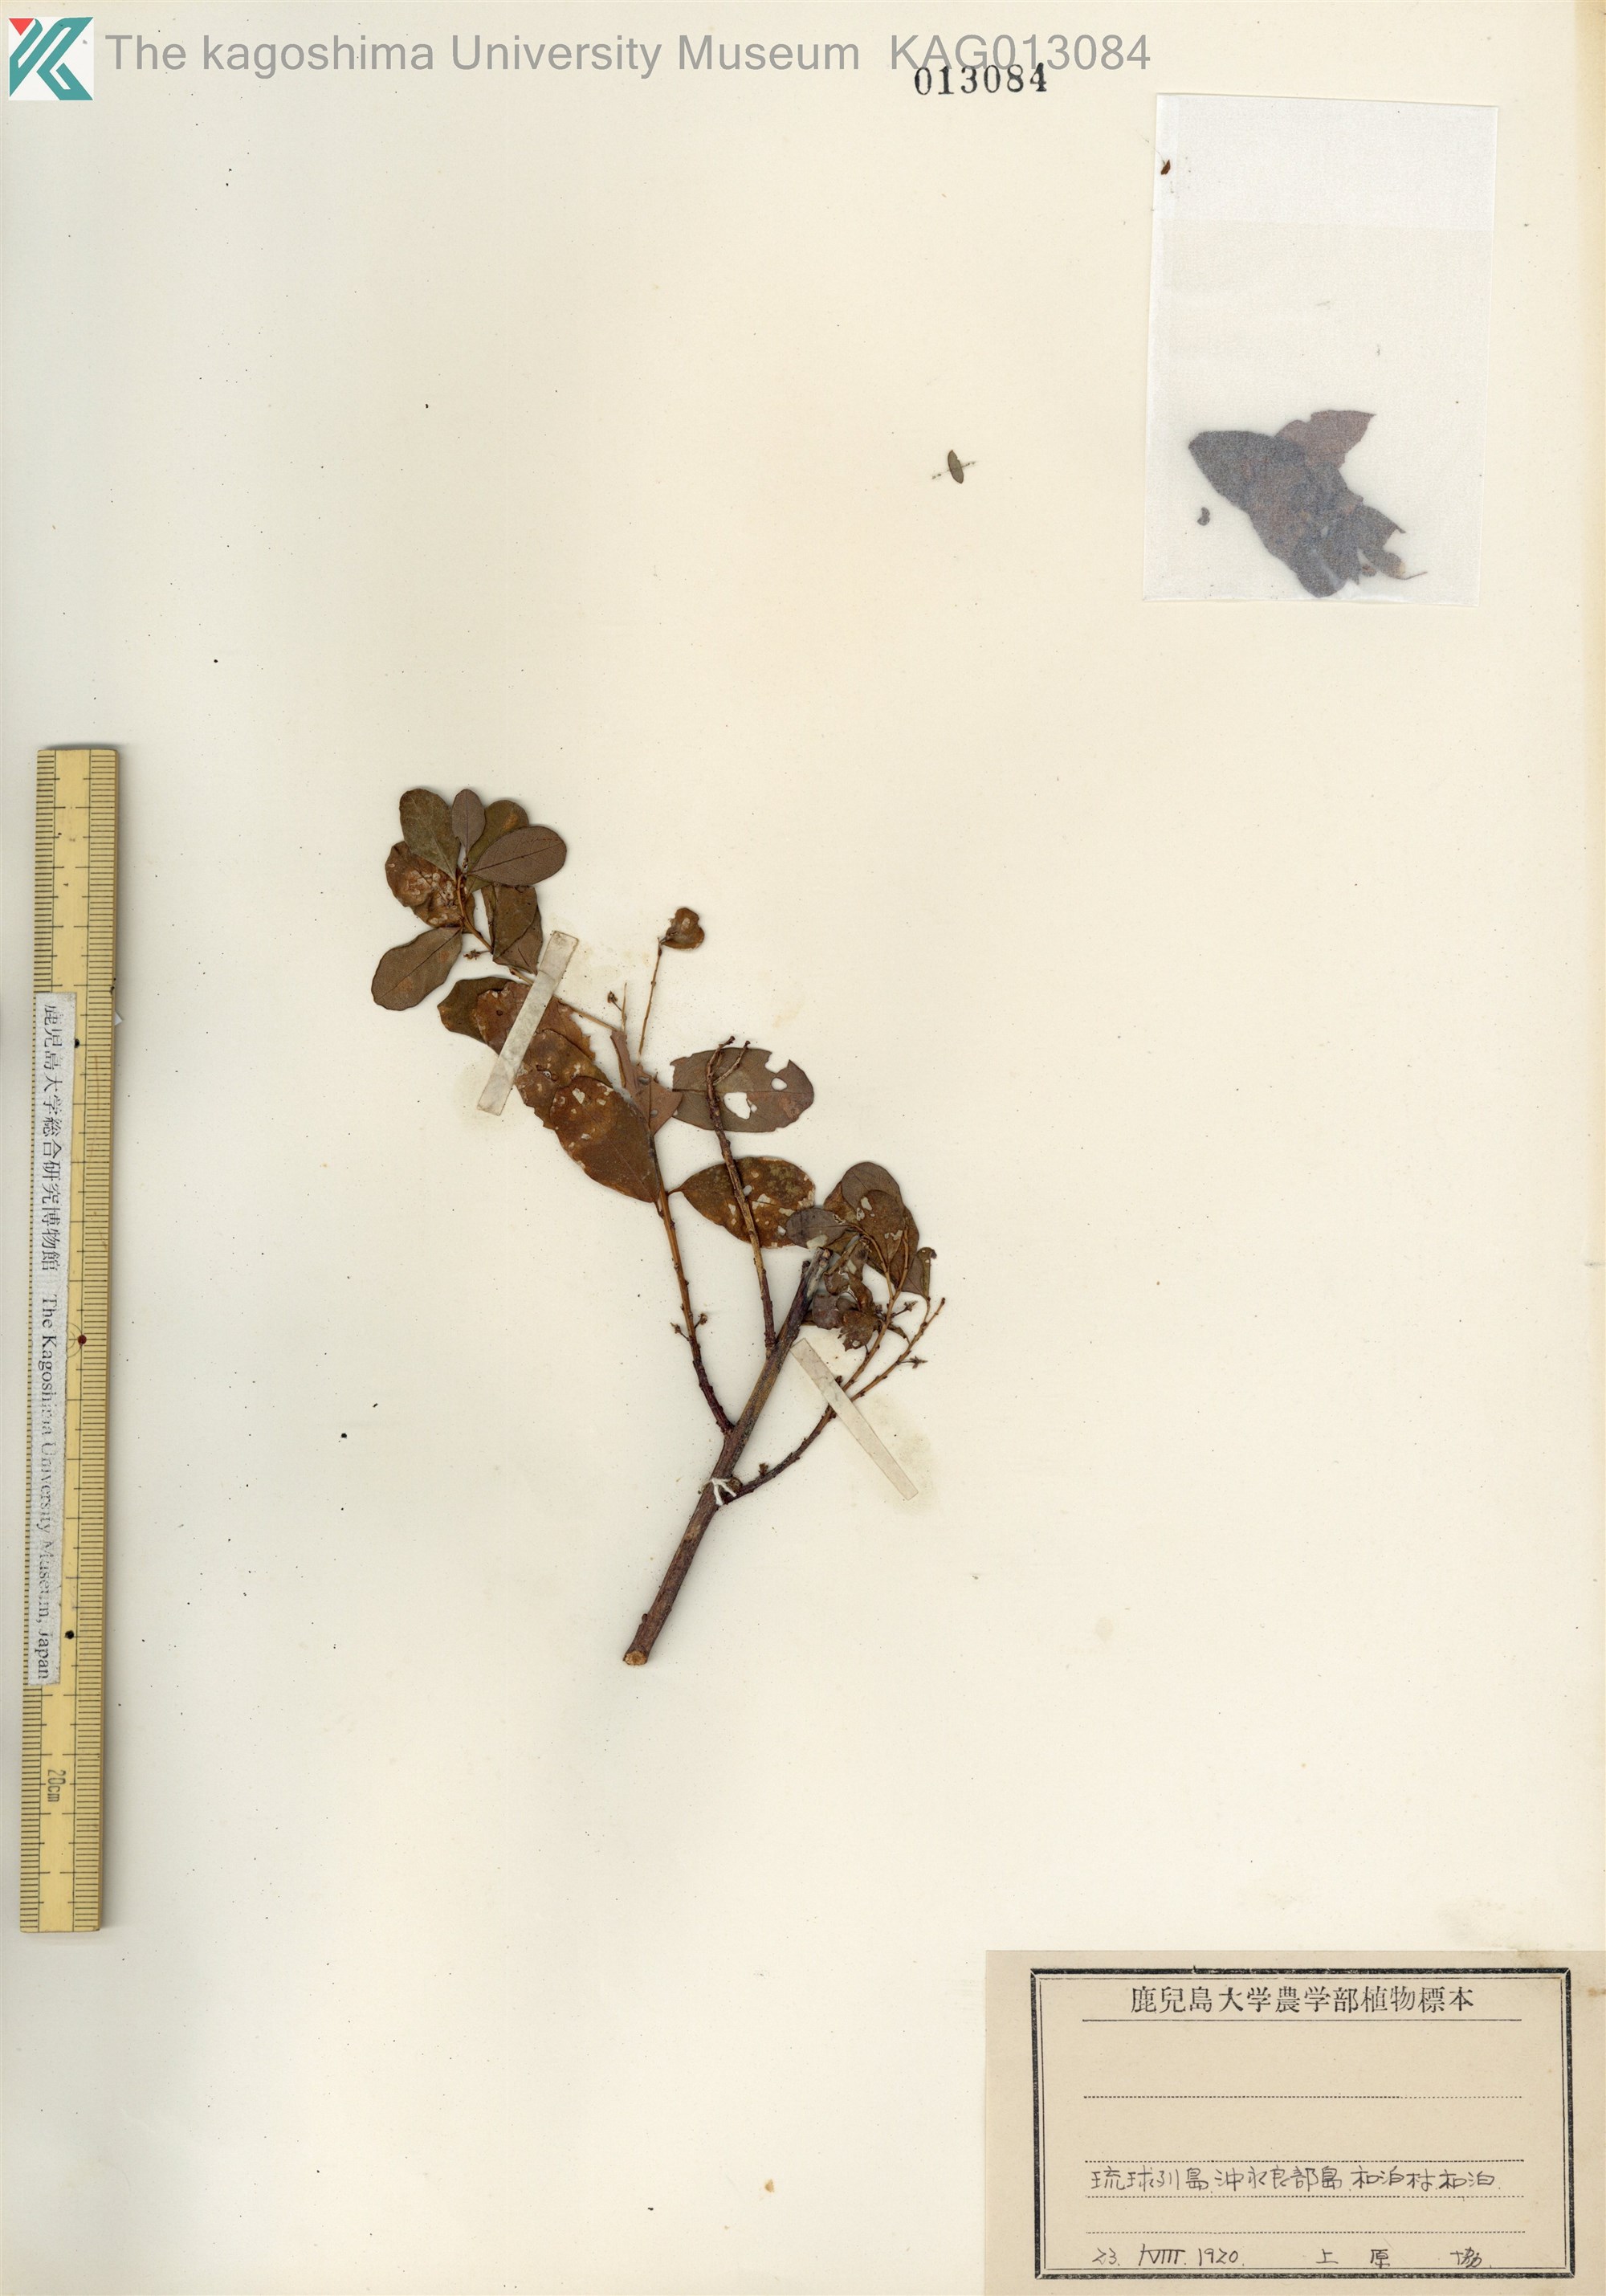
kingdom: Plantae
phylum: Tracheophyta
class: Magnoliopsida
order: Malpighiales
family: Phyllanthaceae
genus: Flueggea
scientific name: Flueggea suffruticosa
